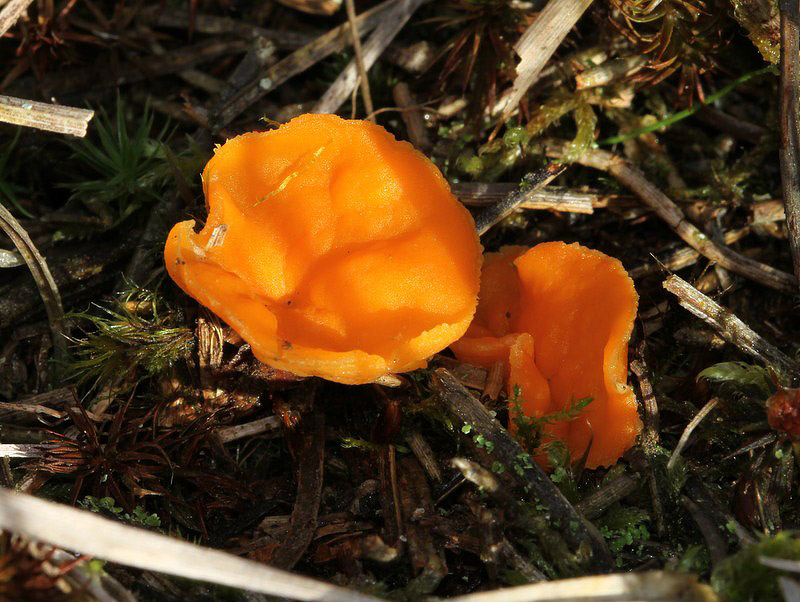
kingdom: Fungi
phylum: Ascomycota
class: Pezizomycetes
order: Pezizales
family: Pyronemataceae
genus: Neottiella
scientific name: Neottiella rutilans
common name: jomfruhår-mosbæger
